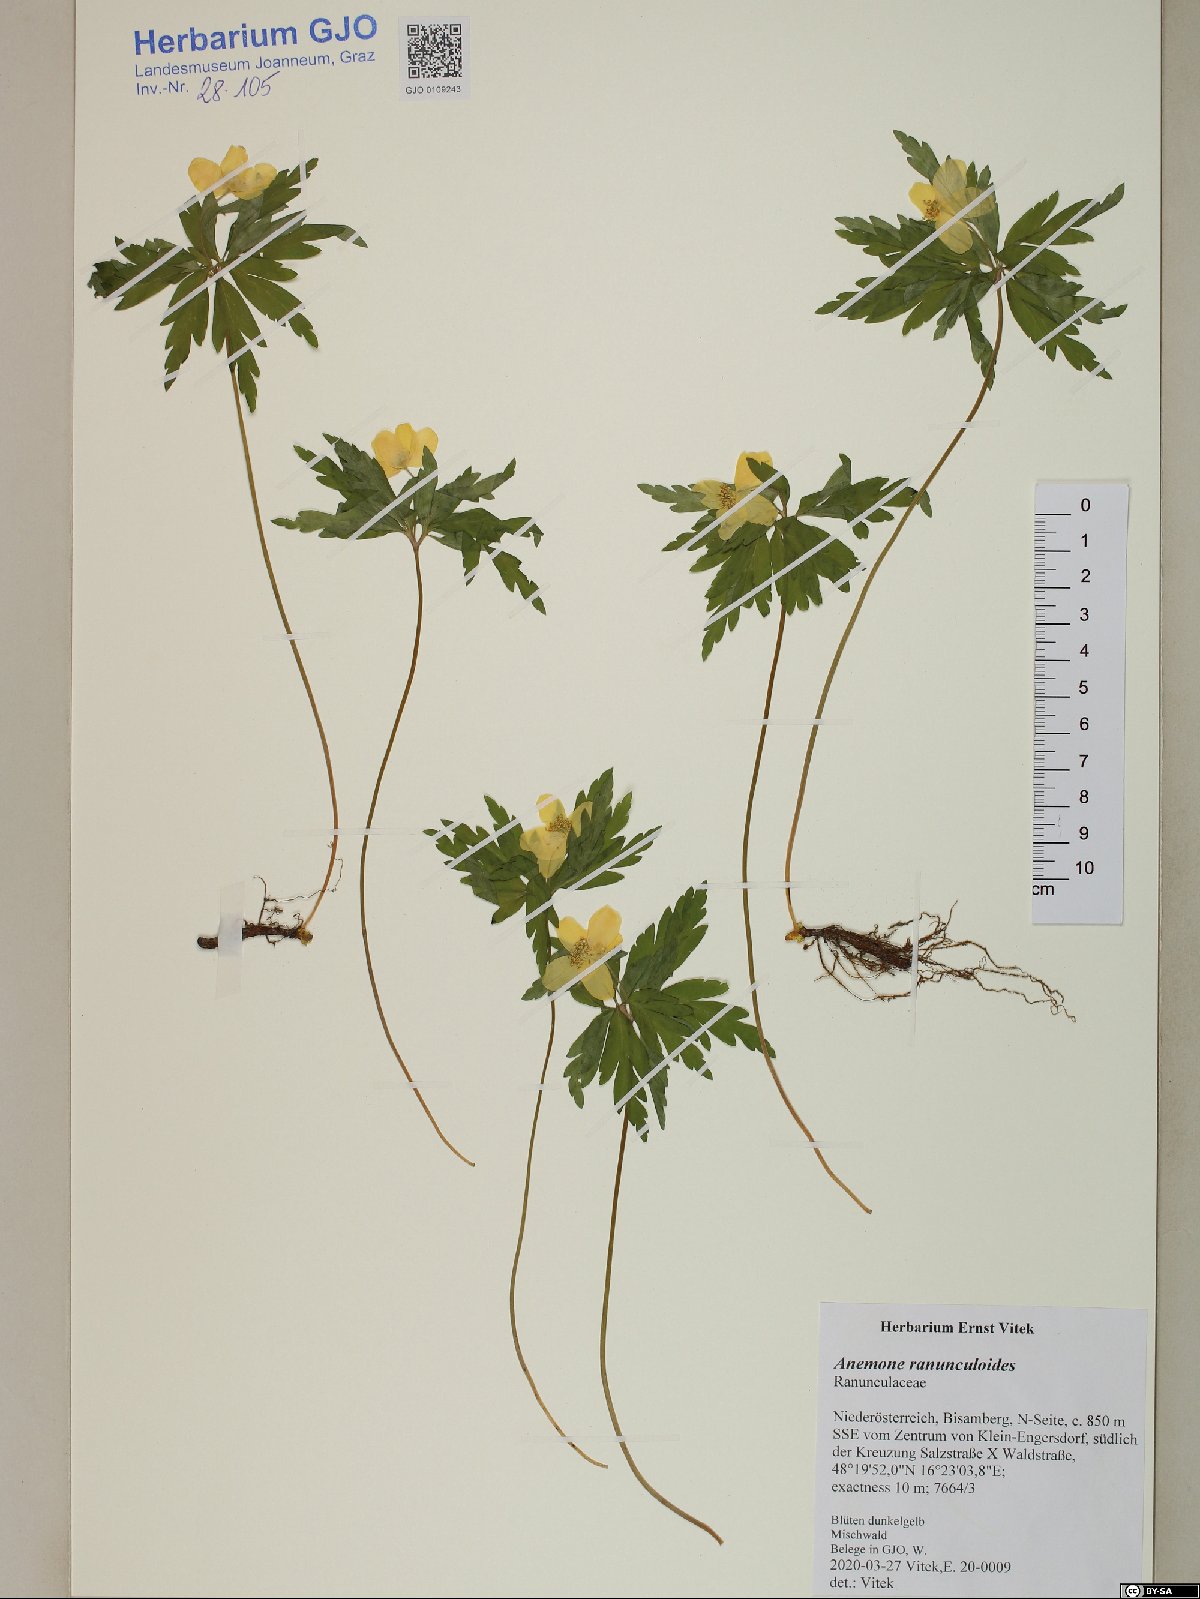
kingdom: Plantae
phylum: Tracheophyta
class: Magnoliopsida
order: Ranunculales
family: Ranunculaceae
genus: Anemone
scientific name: Anemone ranunculoides
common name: Yellow anemone
